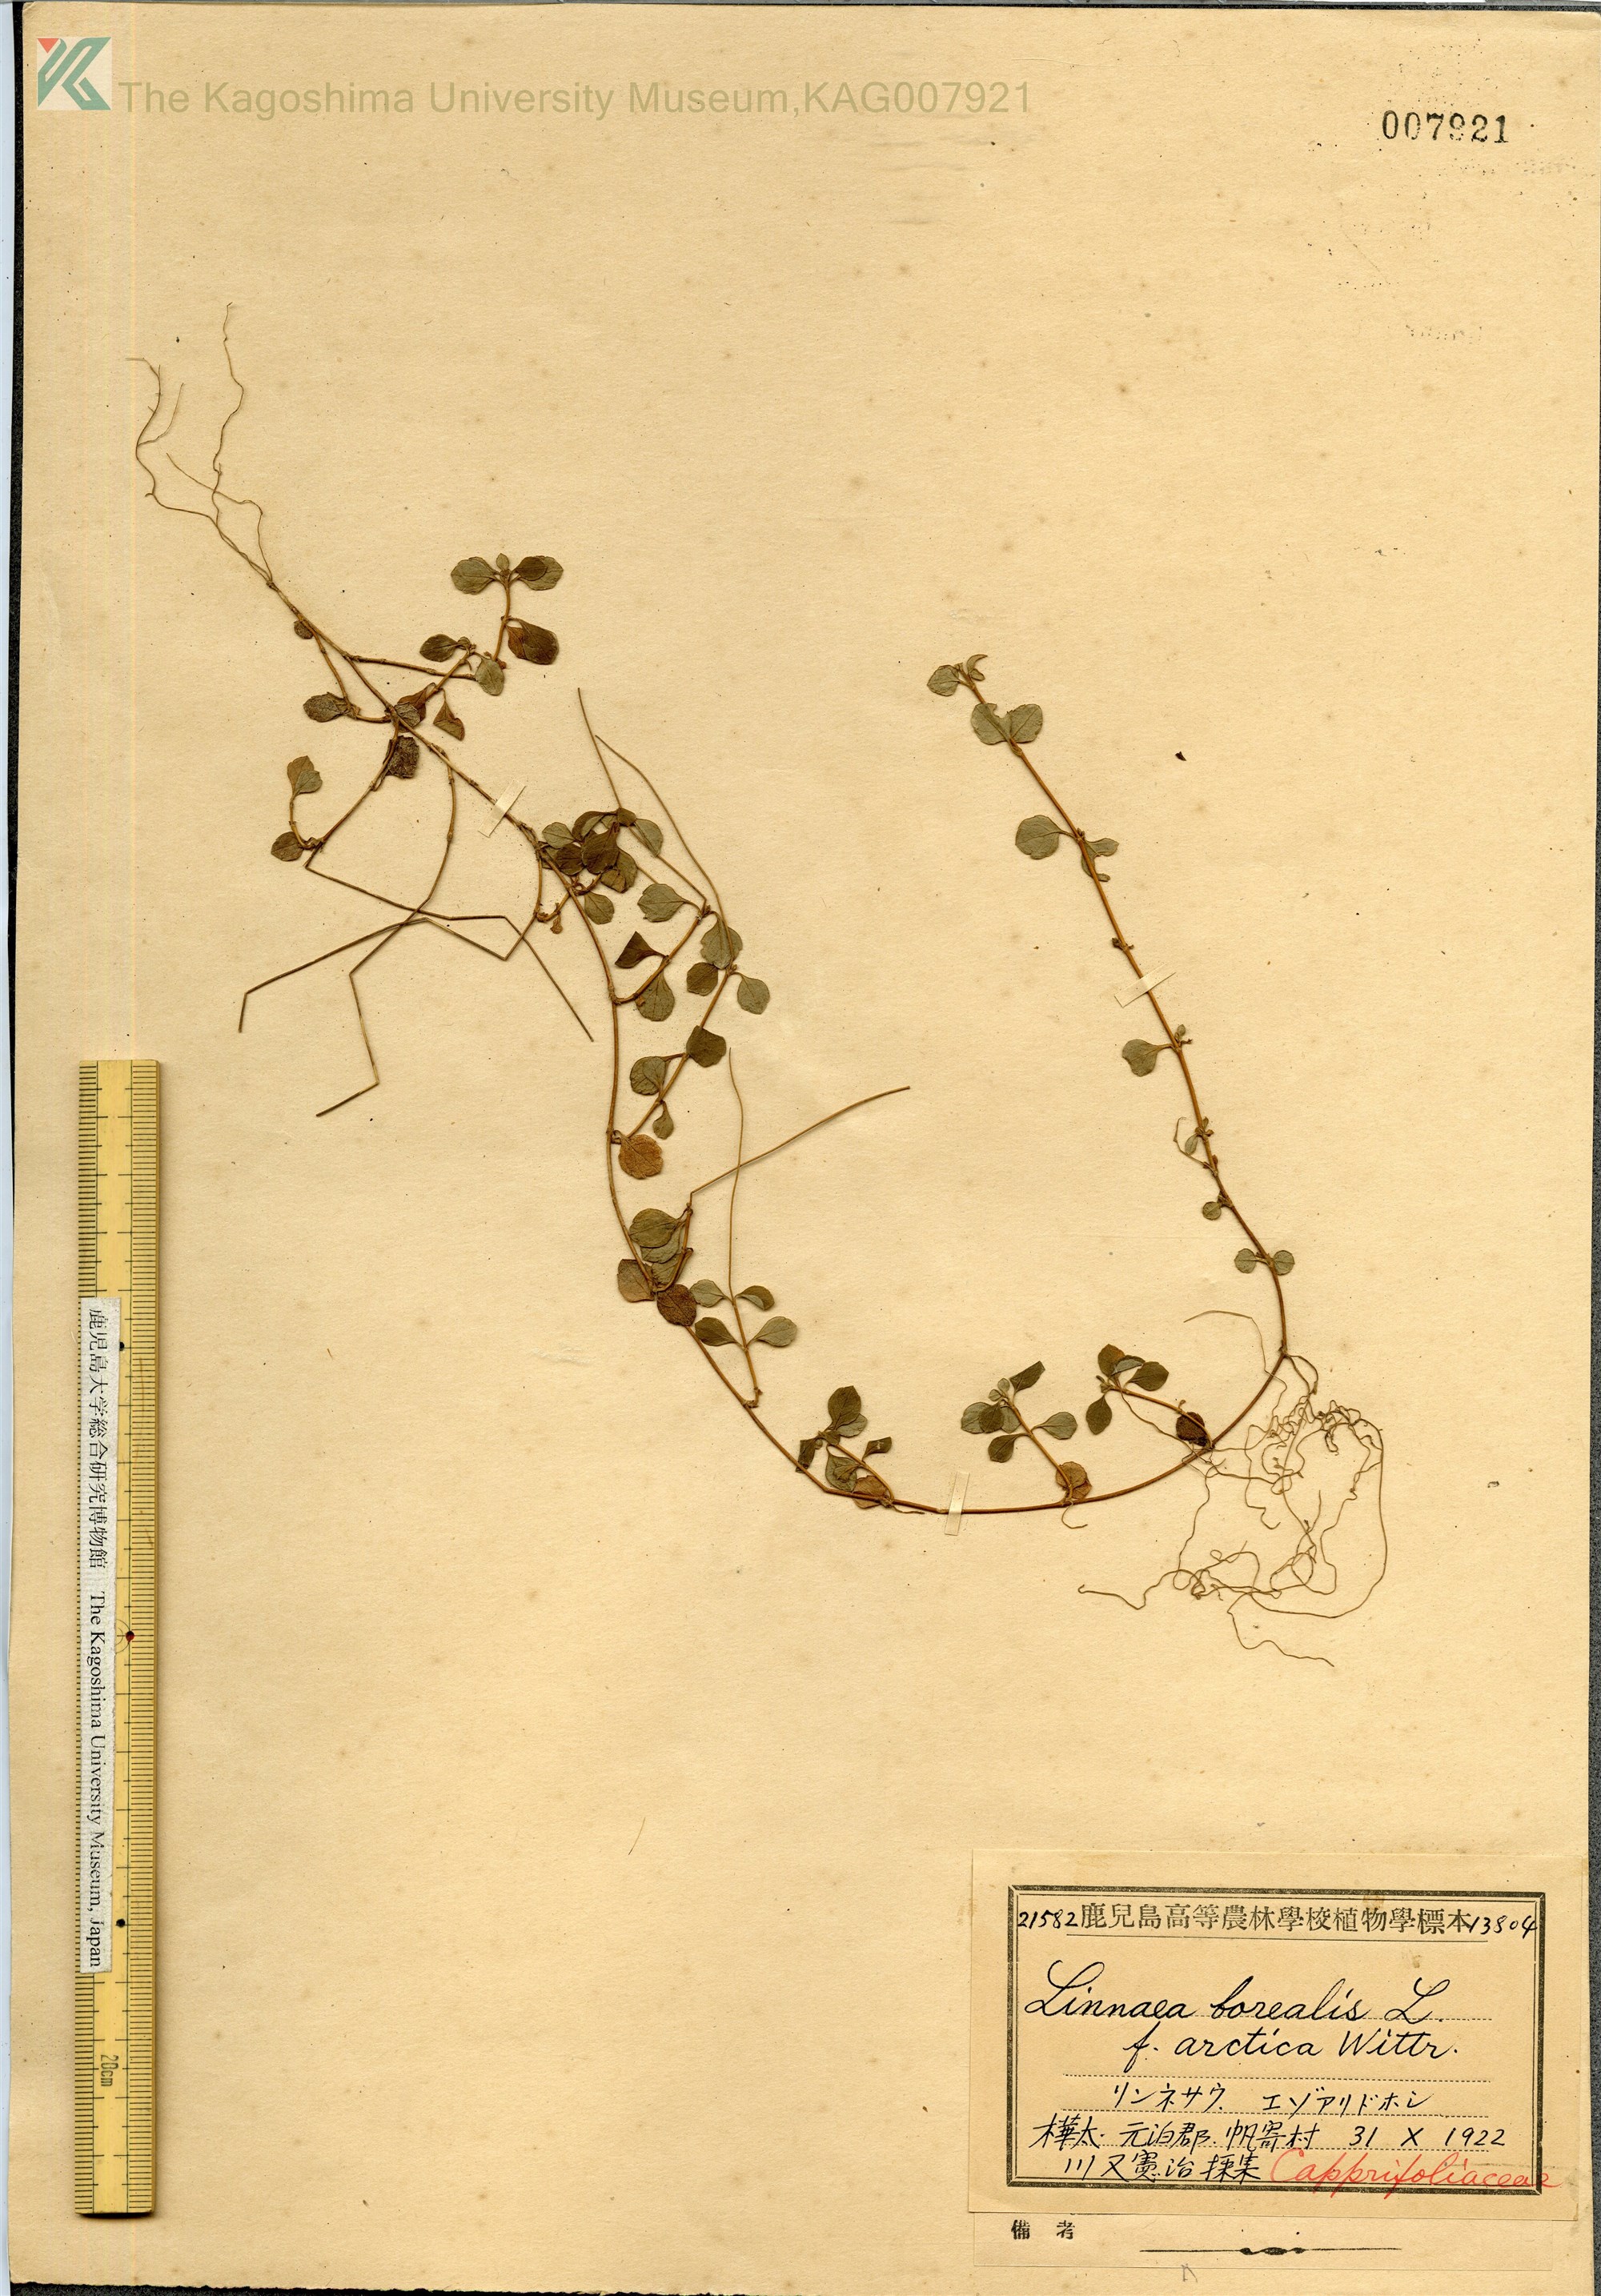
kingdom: Plantae
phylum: Tracheophyta
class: Magnoliopsida
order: Dipsacales
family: Caprifoliaceae
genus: Linnaea
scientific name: Linnaea borealis
